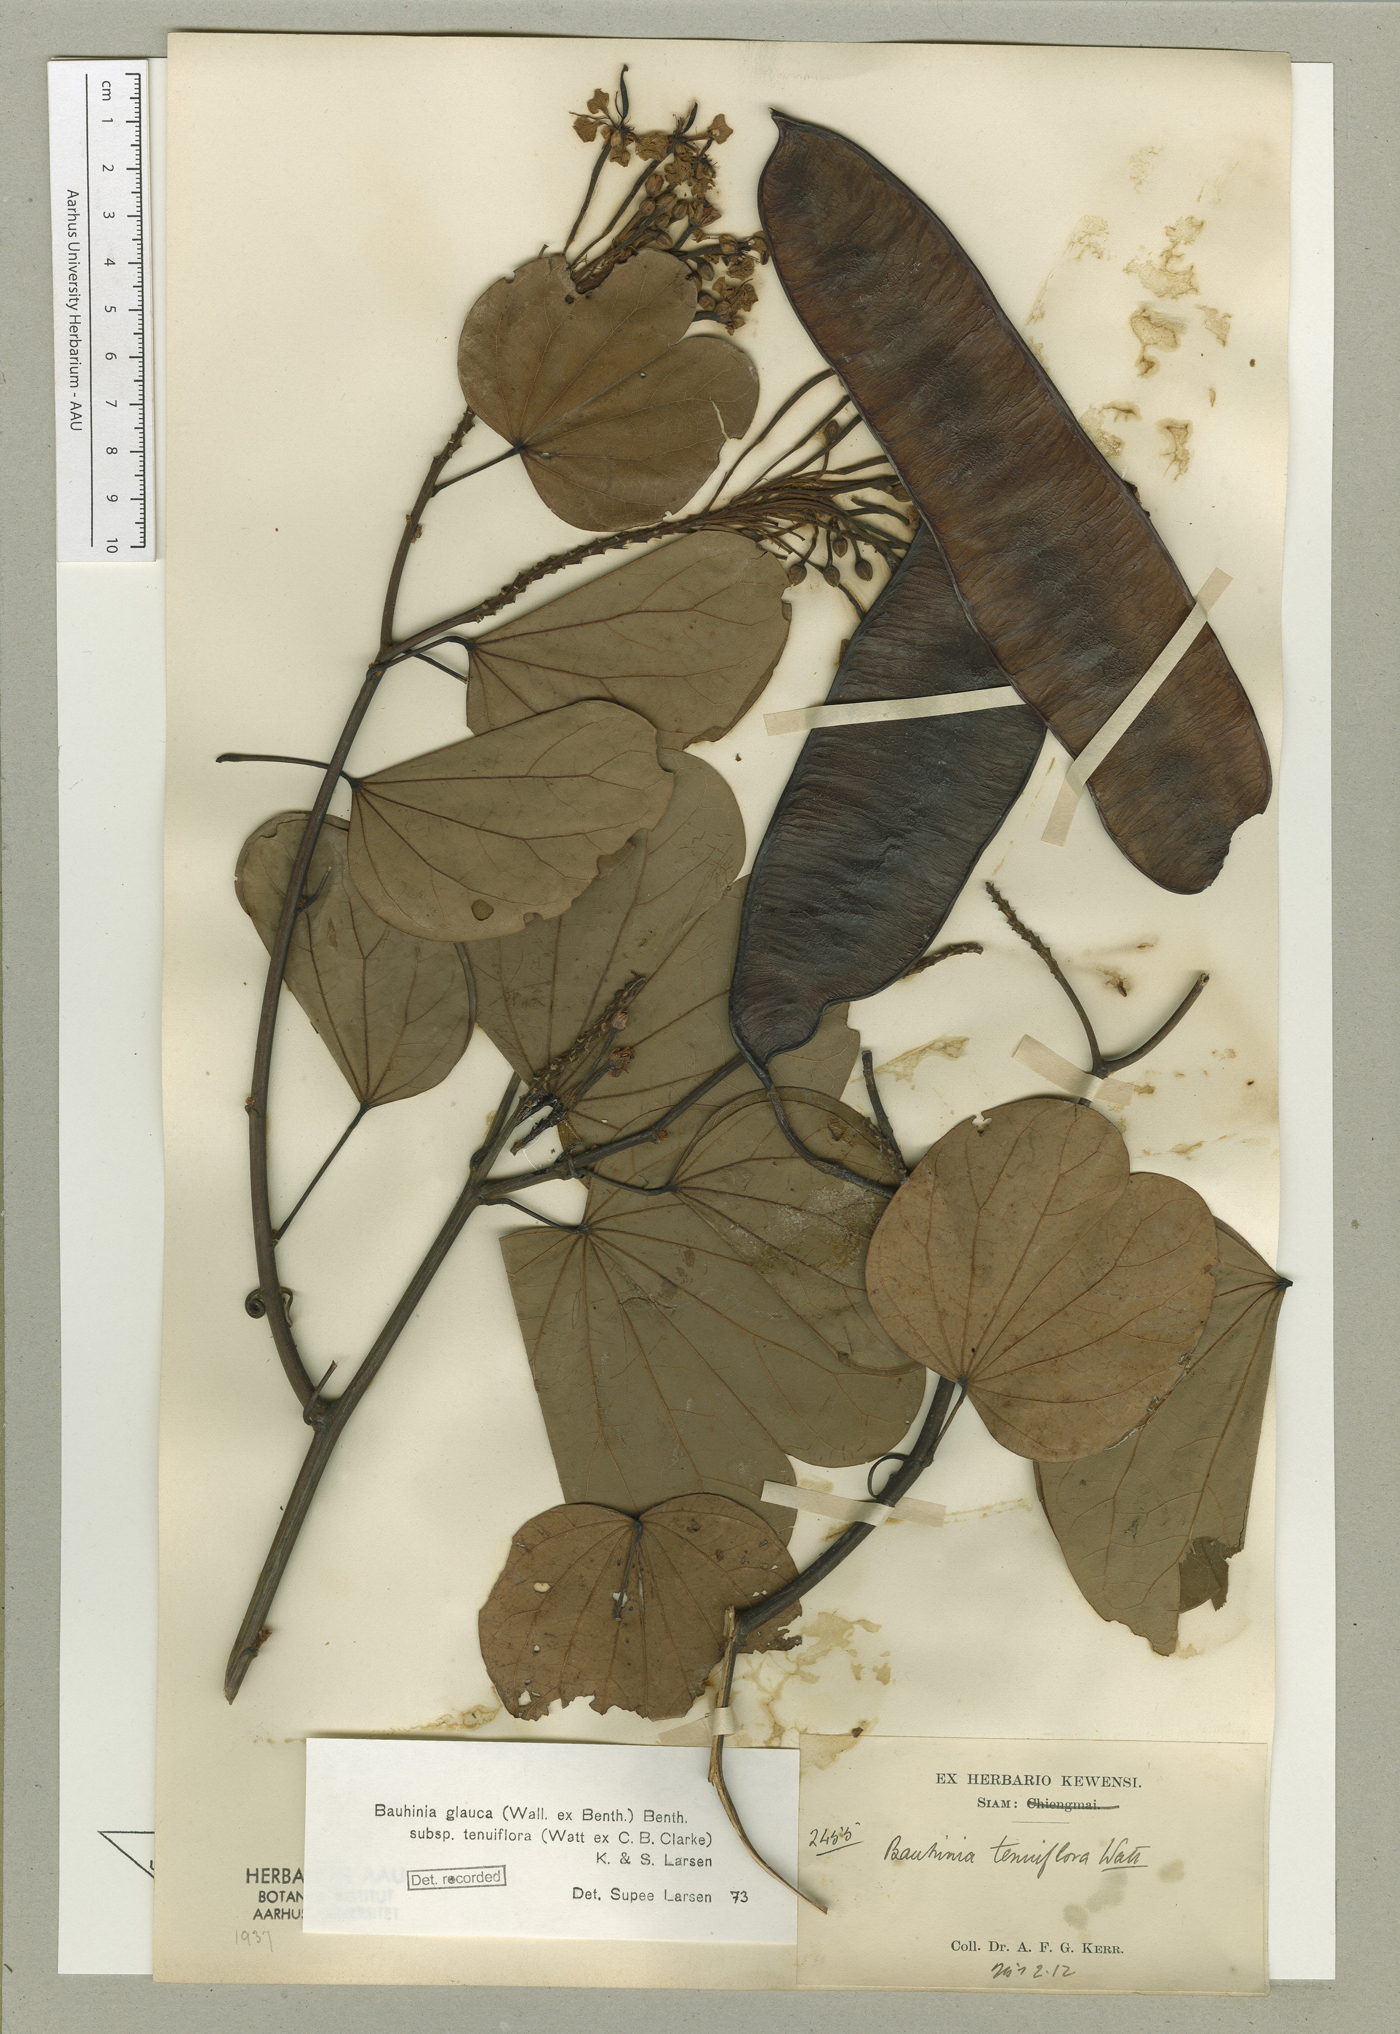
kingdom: Plantae
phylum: Tracheophyta
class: Magnoliopsida
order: Fabales
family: Fabaceae
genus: Cheniella
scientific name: Cheniella tenuiflora
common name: Bauhinia
